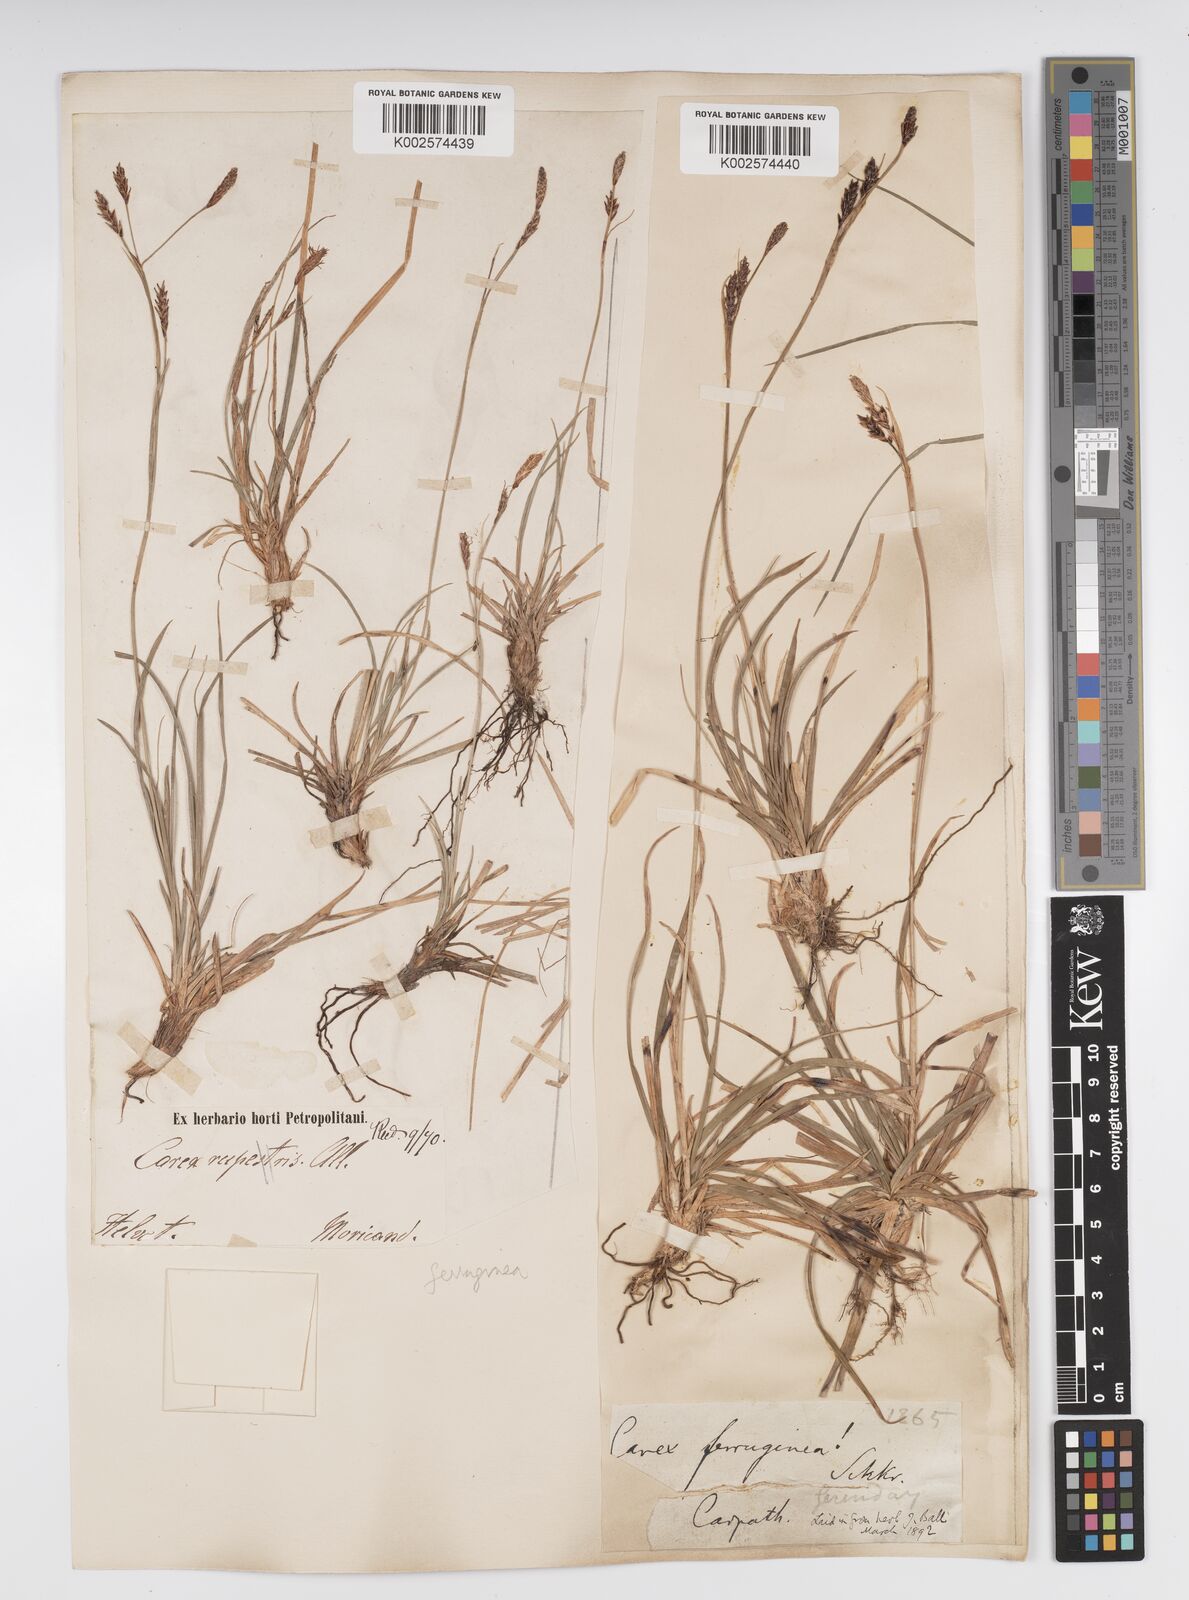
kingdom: Plantae
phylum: Tracheophyta
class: Liliopsida
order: Poales
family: Cyperaceae
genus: Carex
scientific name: Carex sempervirens
